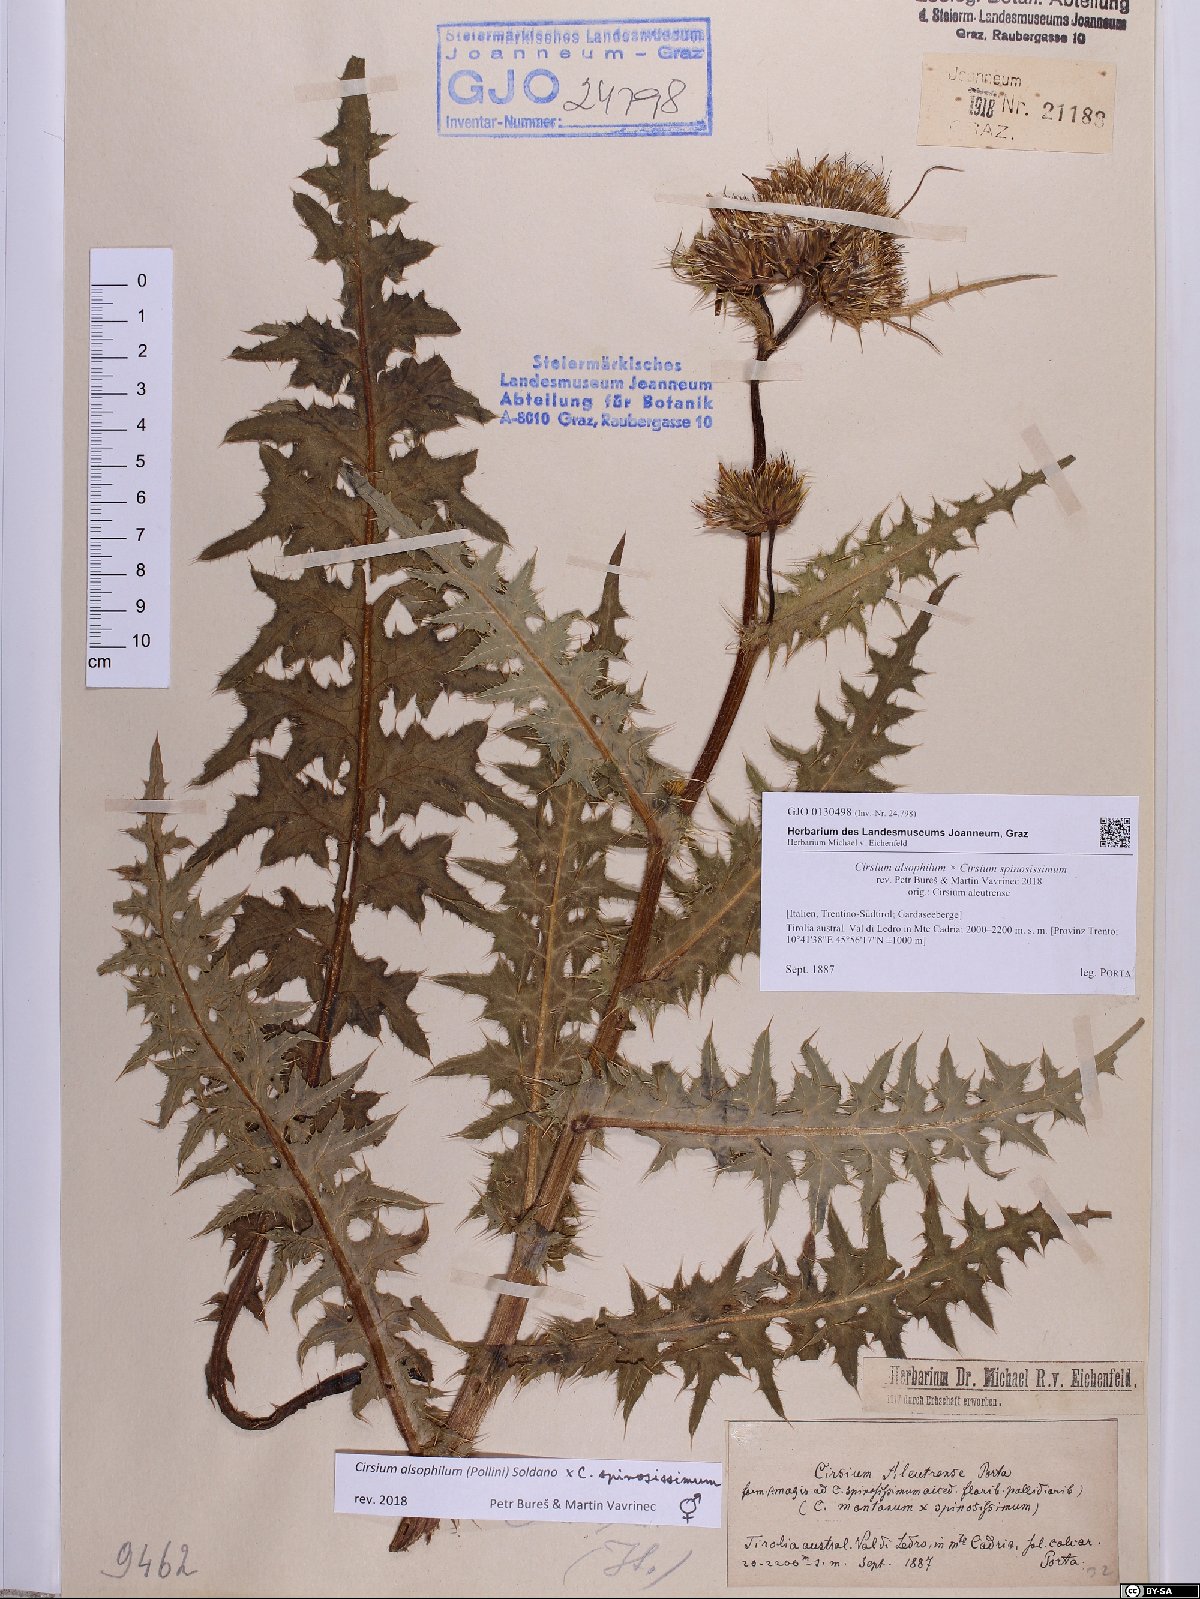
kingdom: Plantae
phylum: Tracheophyta
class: Magnoliopsida
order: Asterales
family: Asteraceae
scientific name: Asteraceae
